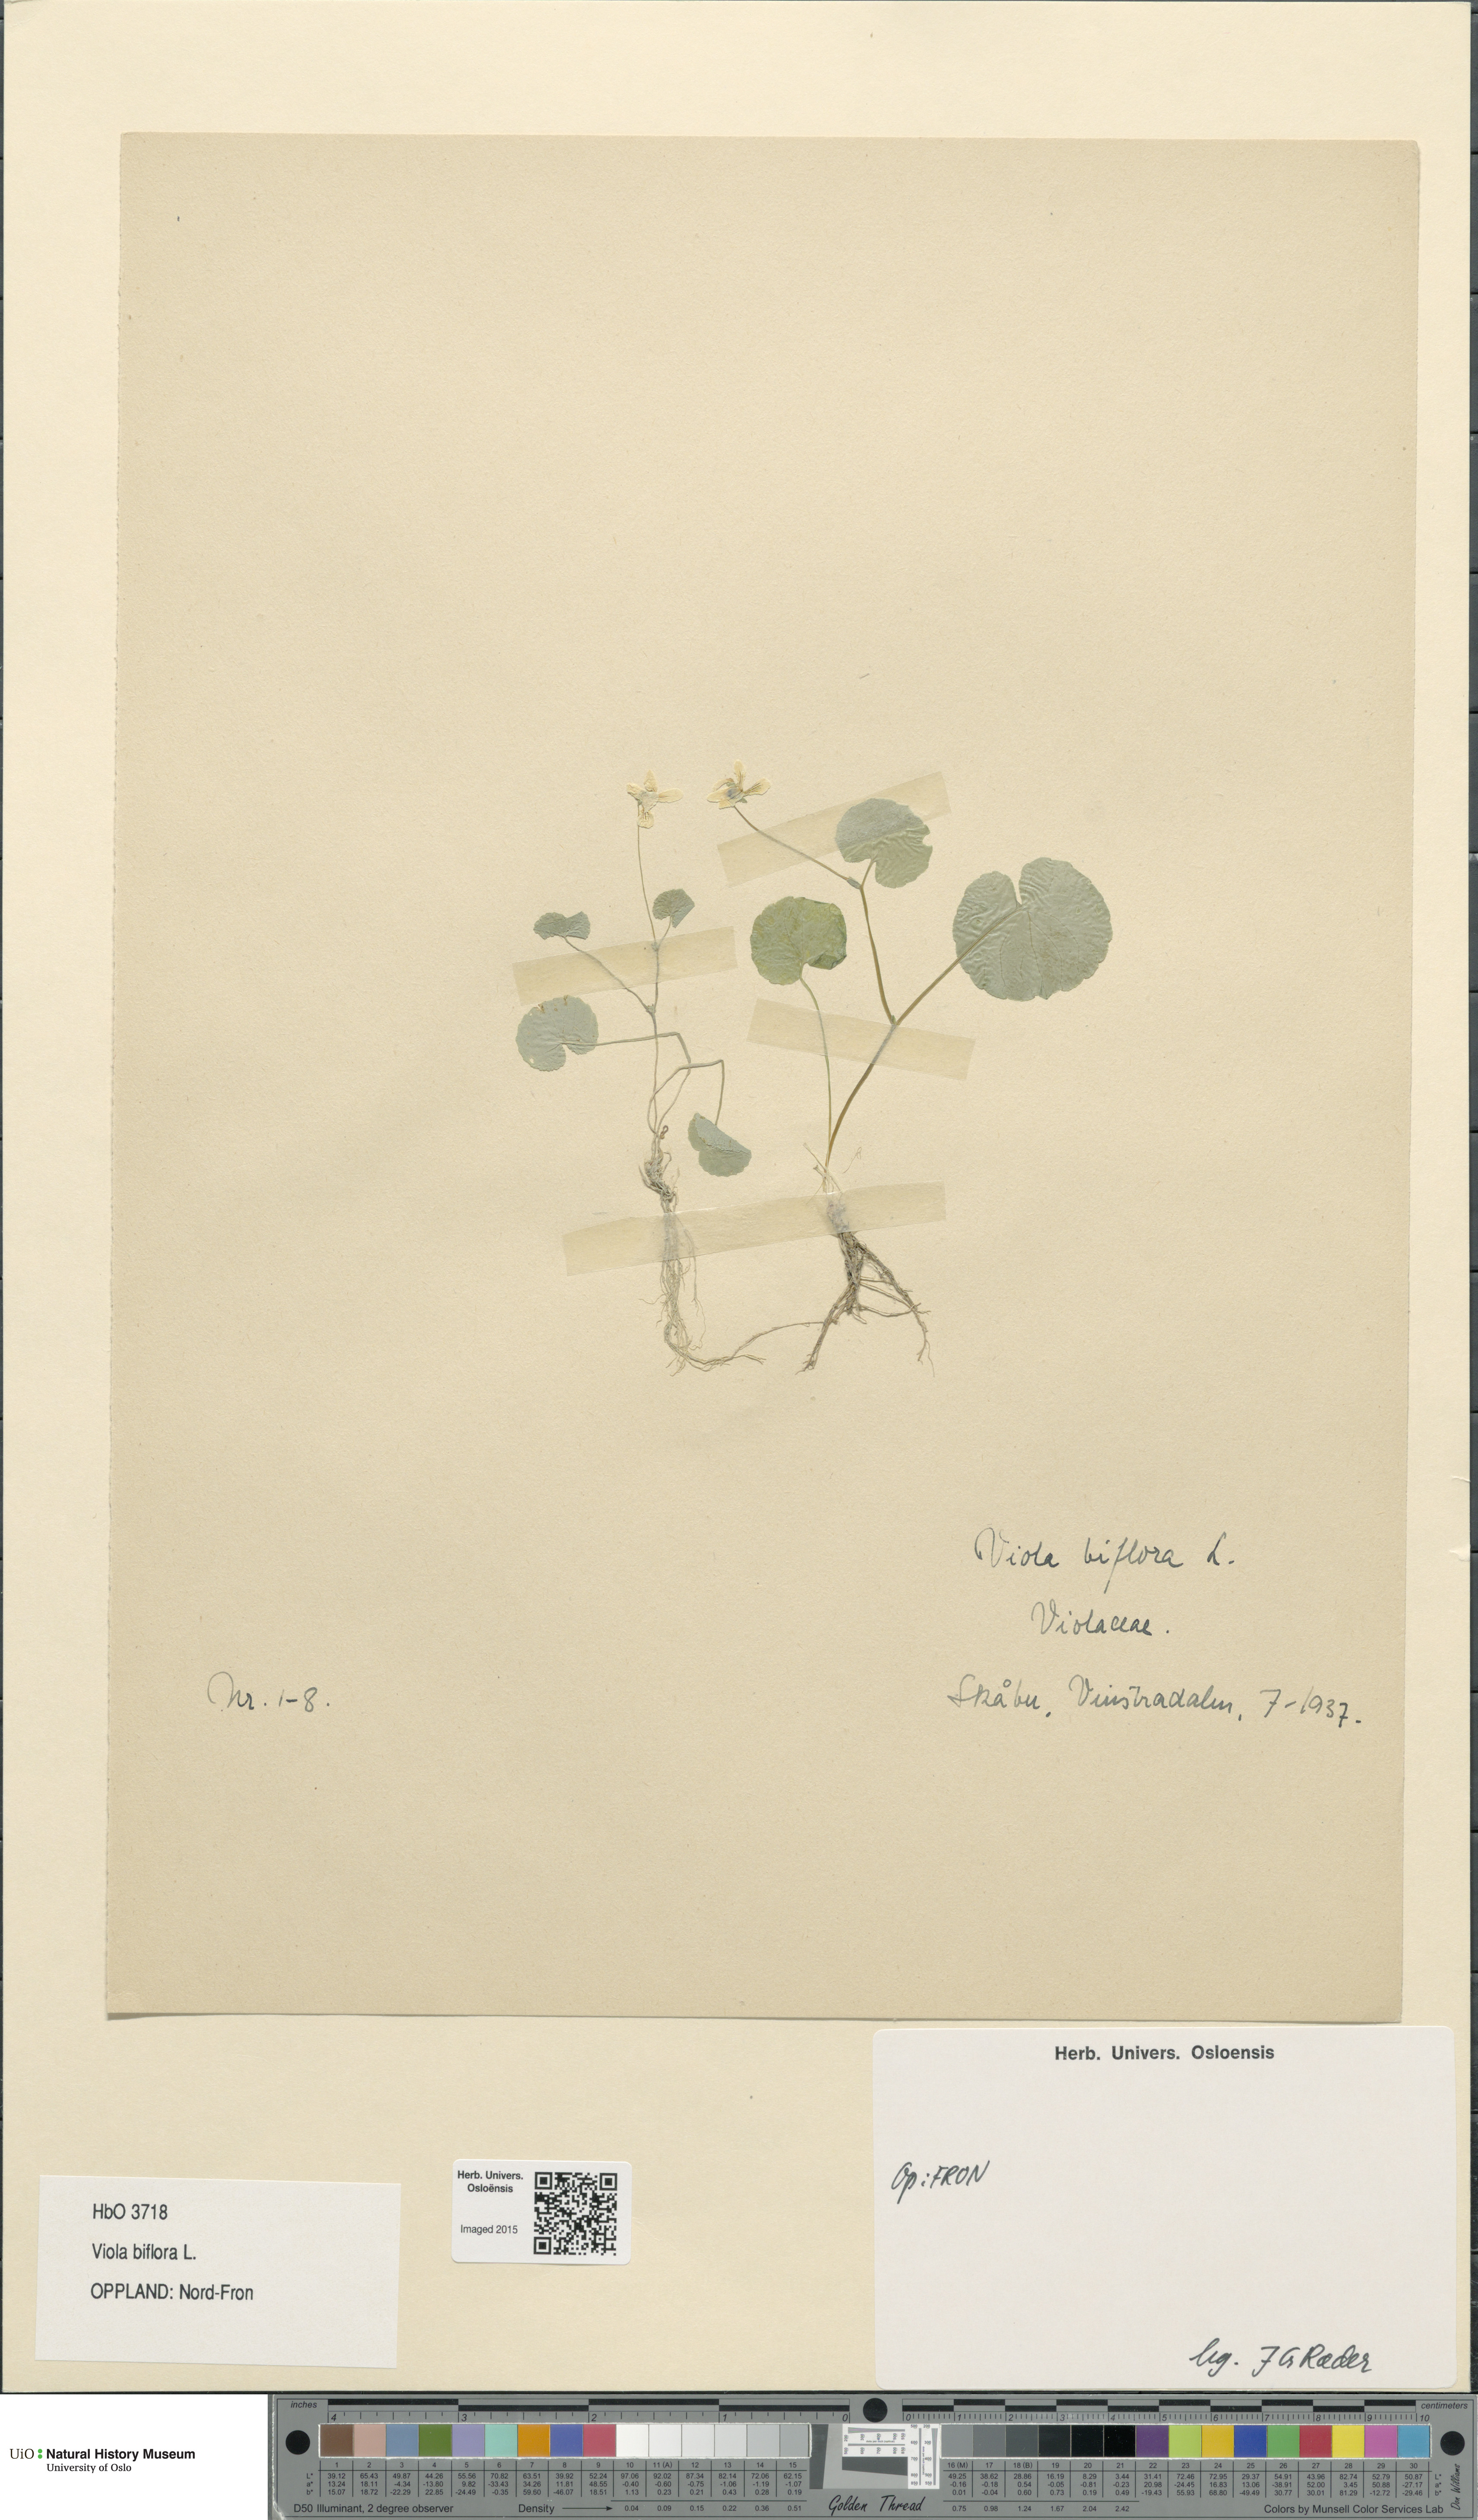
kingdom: Plantae
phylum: Tracheophyta
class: Magnoliopsida
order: Malpighiales
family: Violaceae
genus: Viola
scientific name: Viola biflora
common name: Alpine yellow violet
